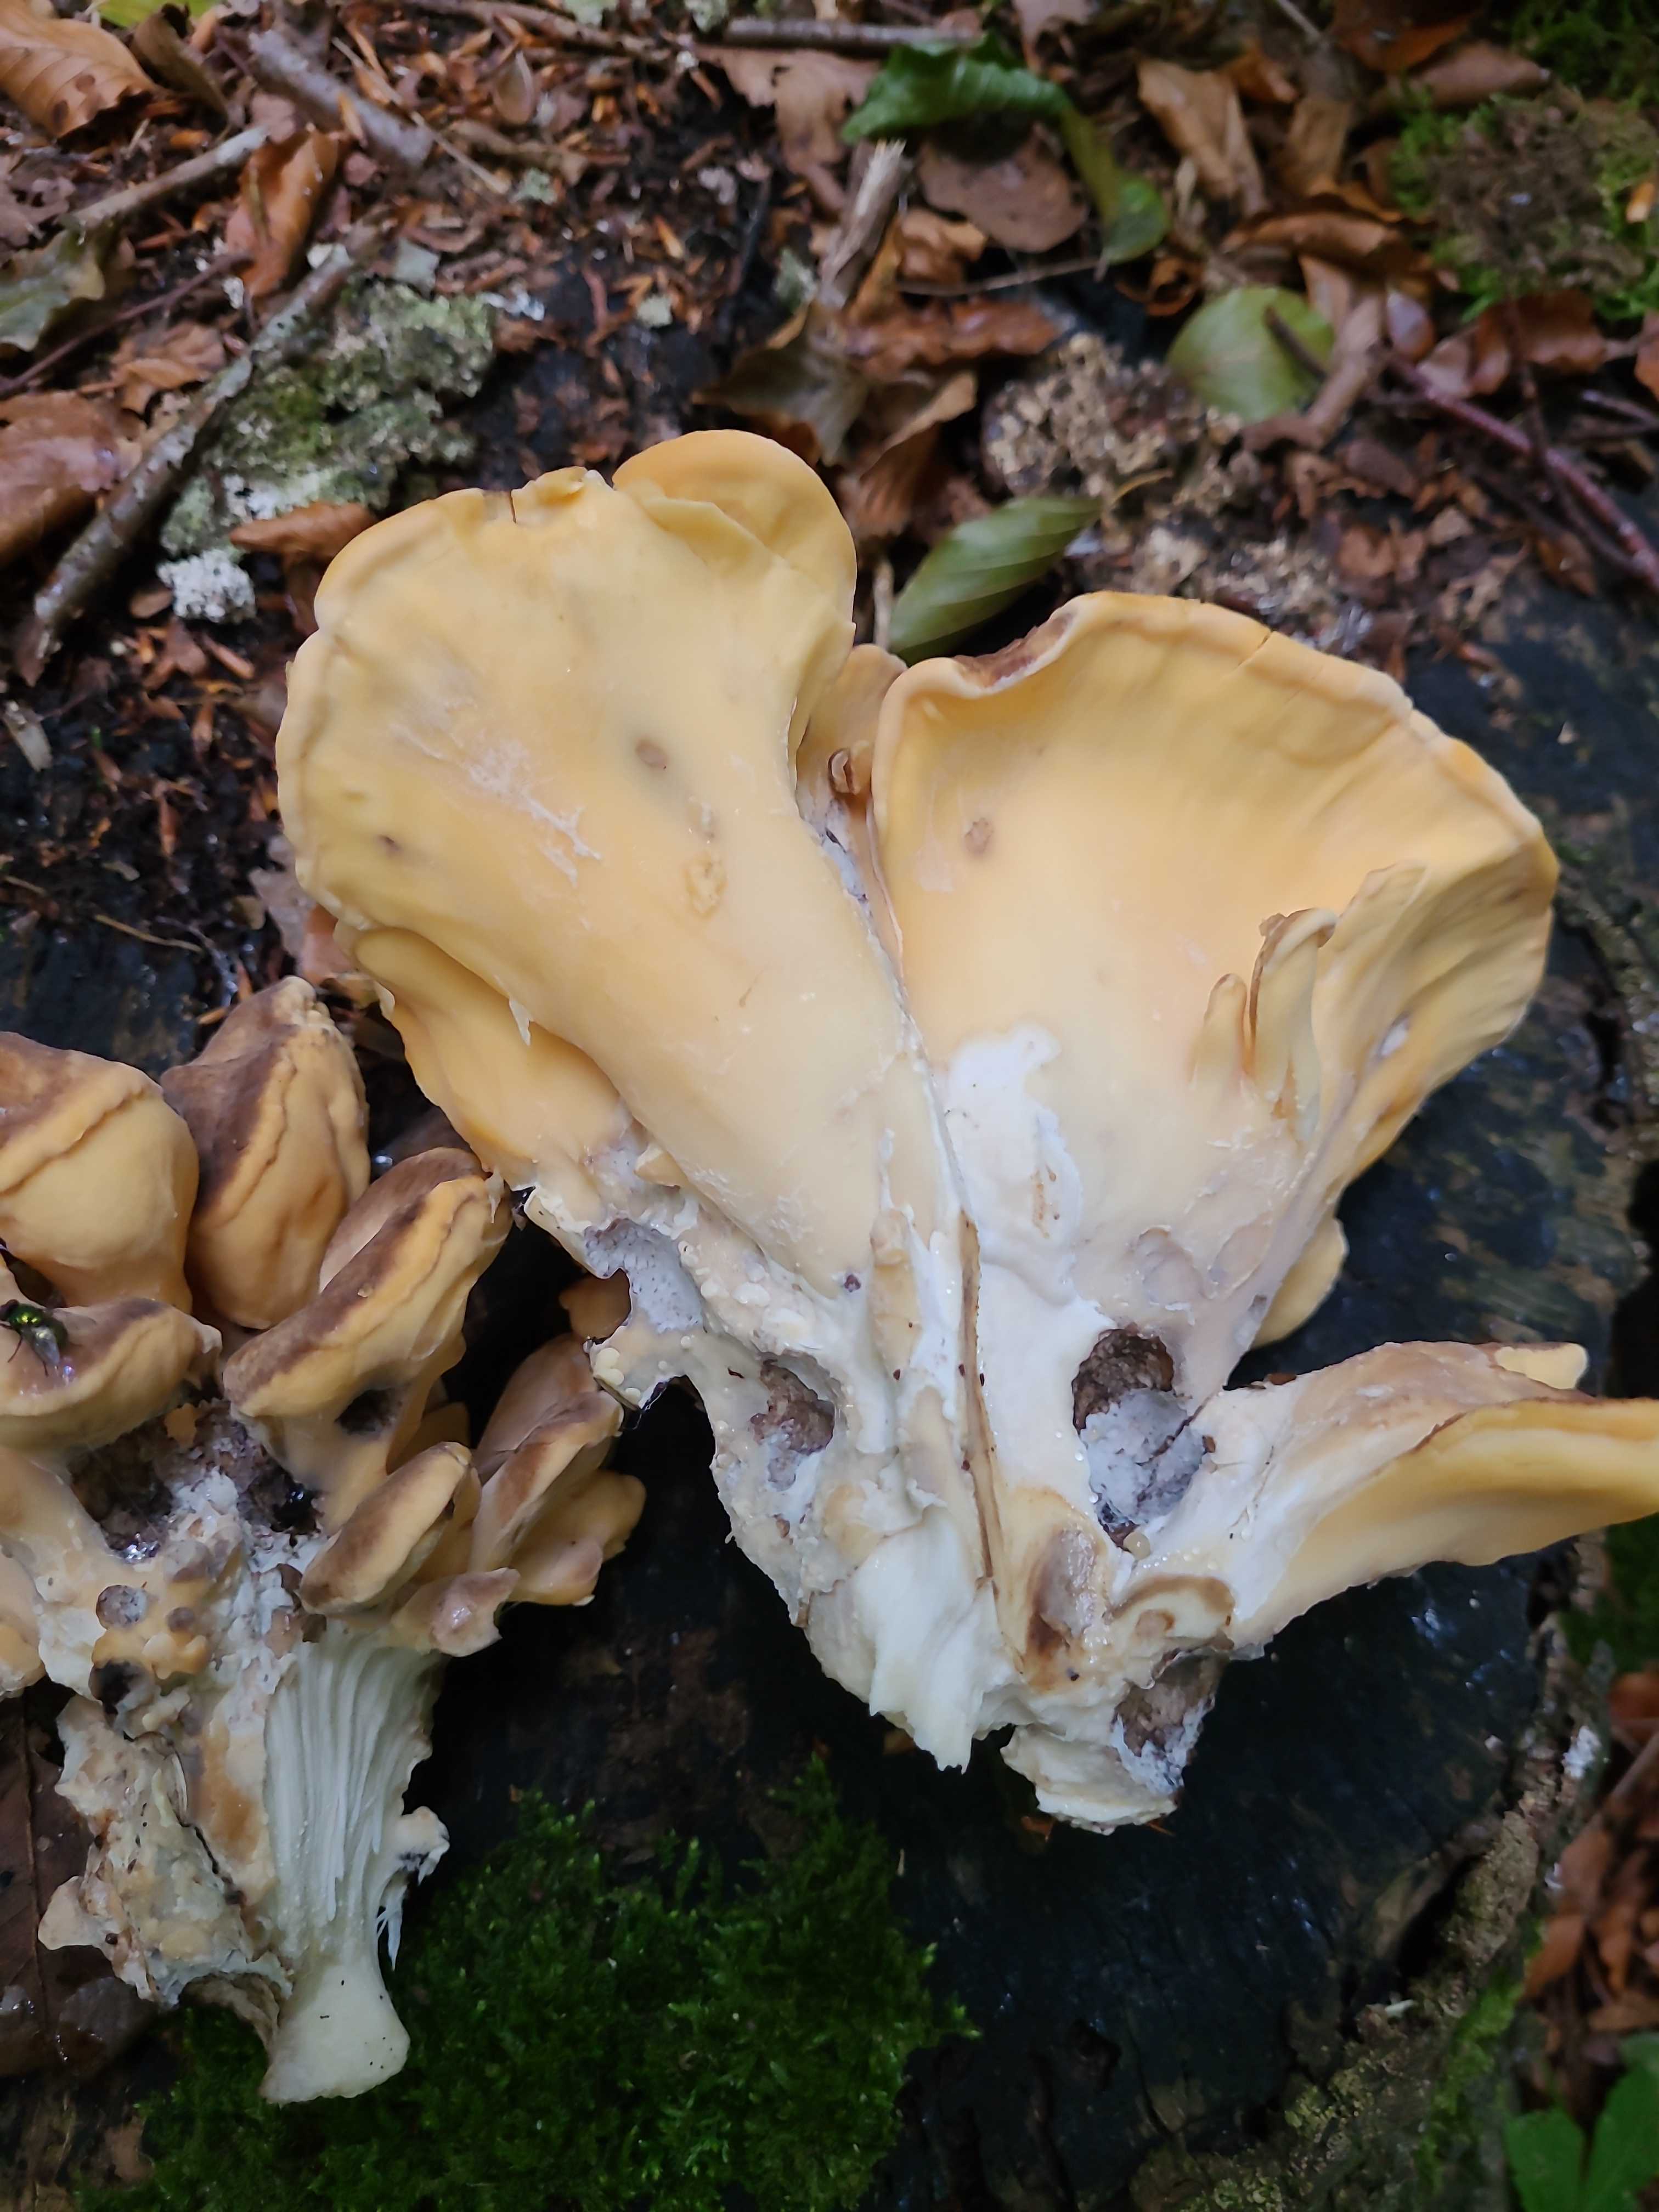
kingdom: Fungi
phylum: Basidiomycota
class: Agaricomycetes
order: Polyporales
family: Meripilaceae
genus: Meripilus
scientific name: Meripilus giganteus
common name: kæmpeporesvamp
